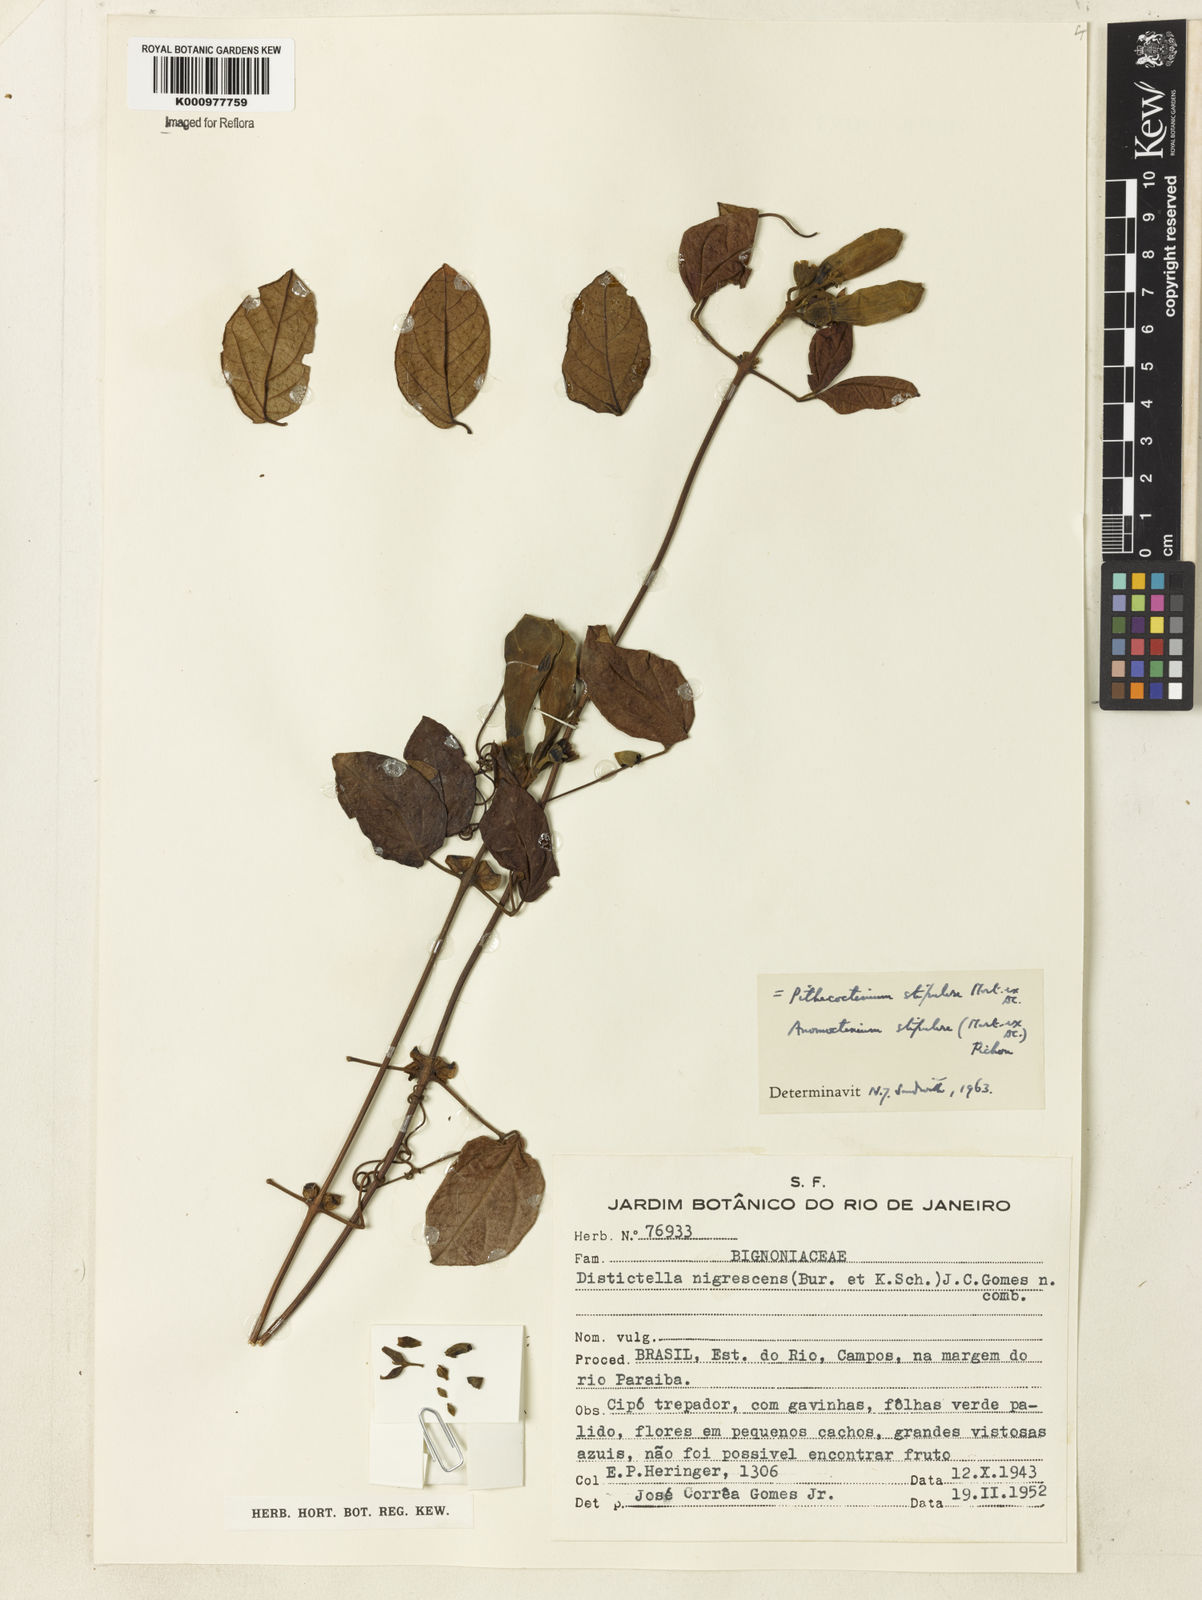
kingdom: Plantae
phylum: Tracheophyta
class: Magnoliopsida
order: Lamiales
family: Bignoniaceae
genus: Pithecoctenium
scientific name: Pithecoctenium
